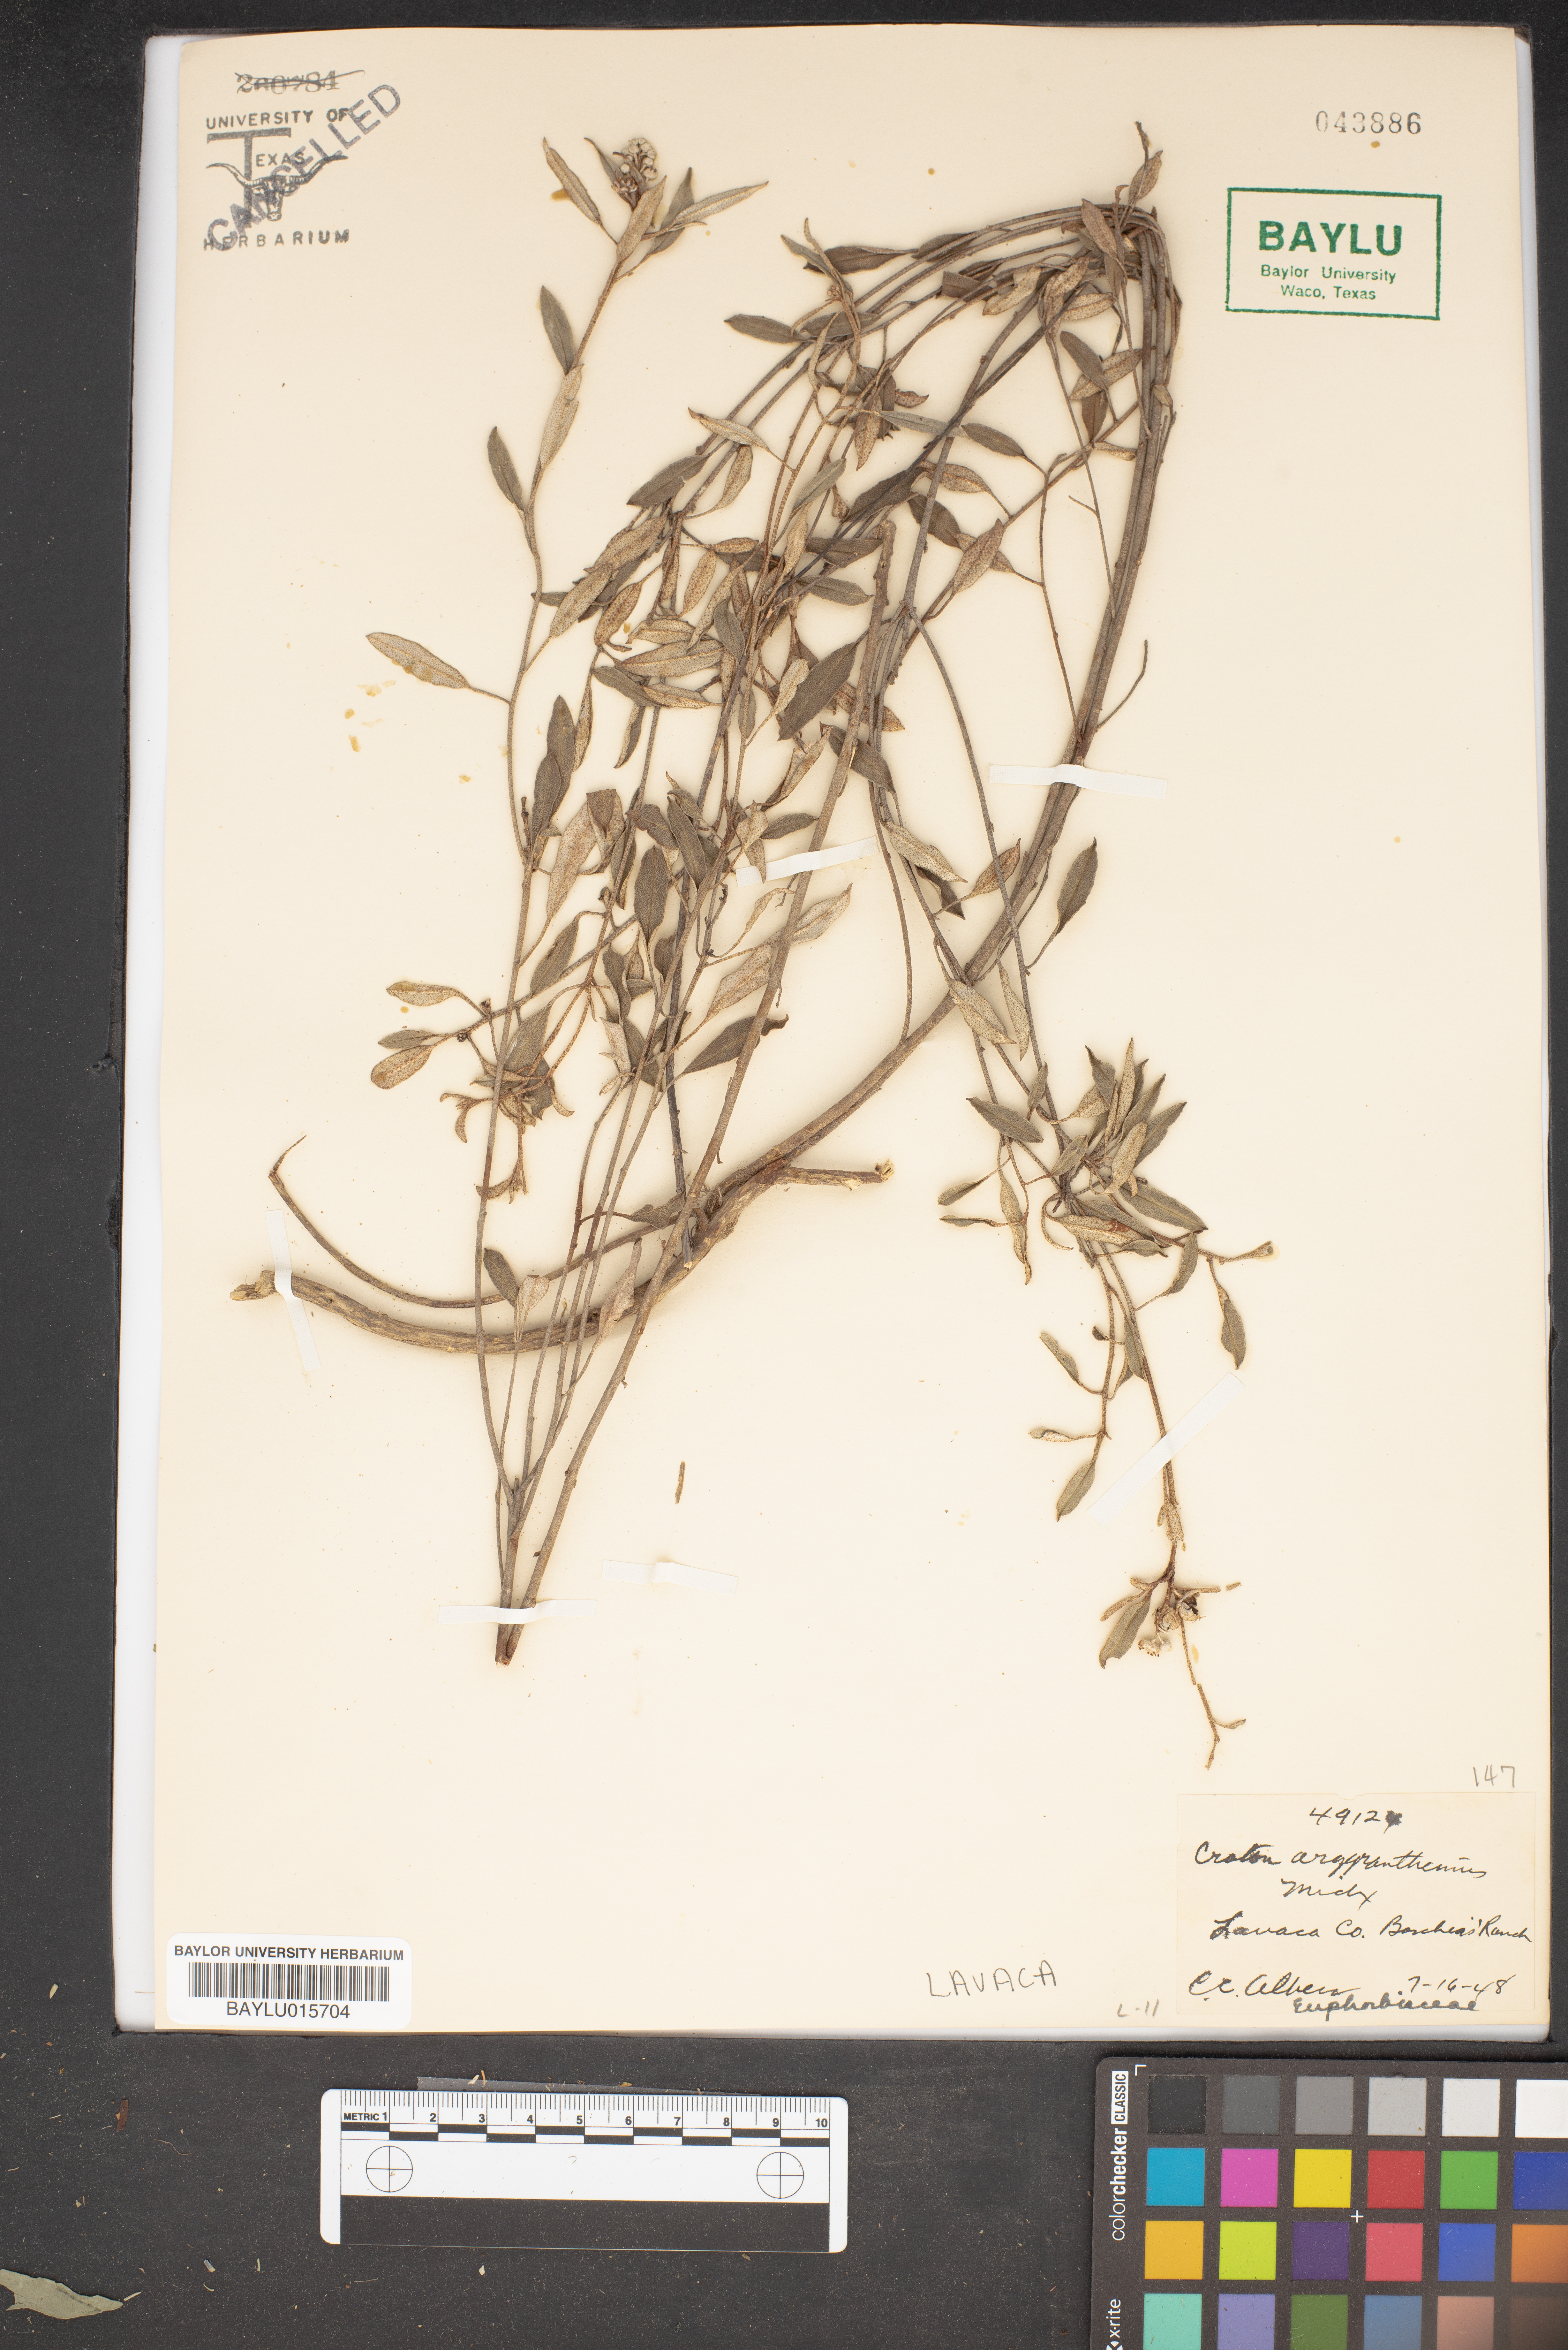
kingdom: Plantae
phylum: Tracheophyta
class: Magnoliopsida
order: Malpighiales
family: Euphorbiaceae
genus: Croton
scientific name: Croton argyranthemus
